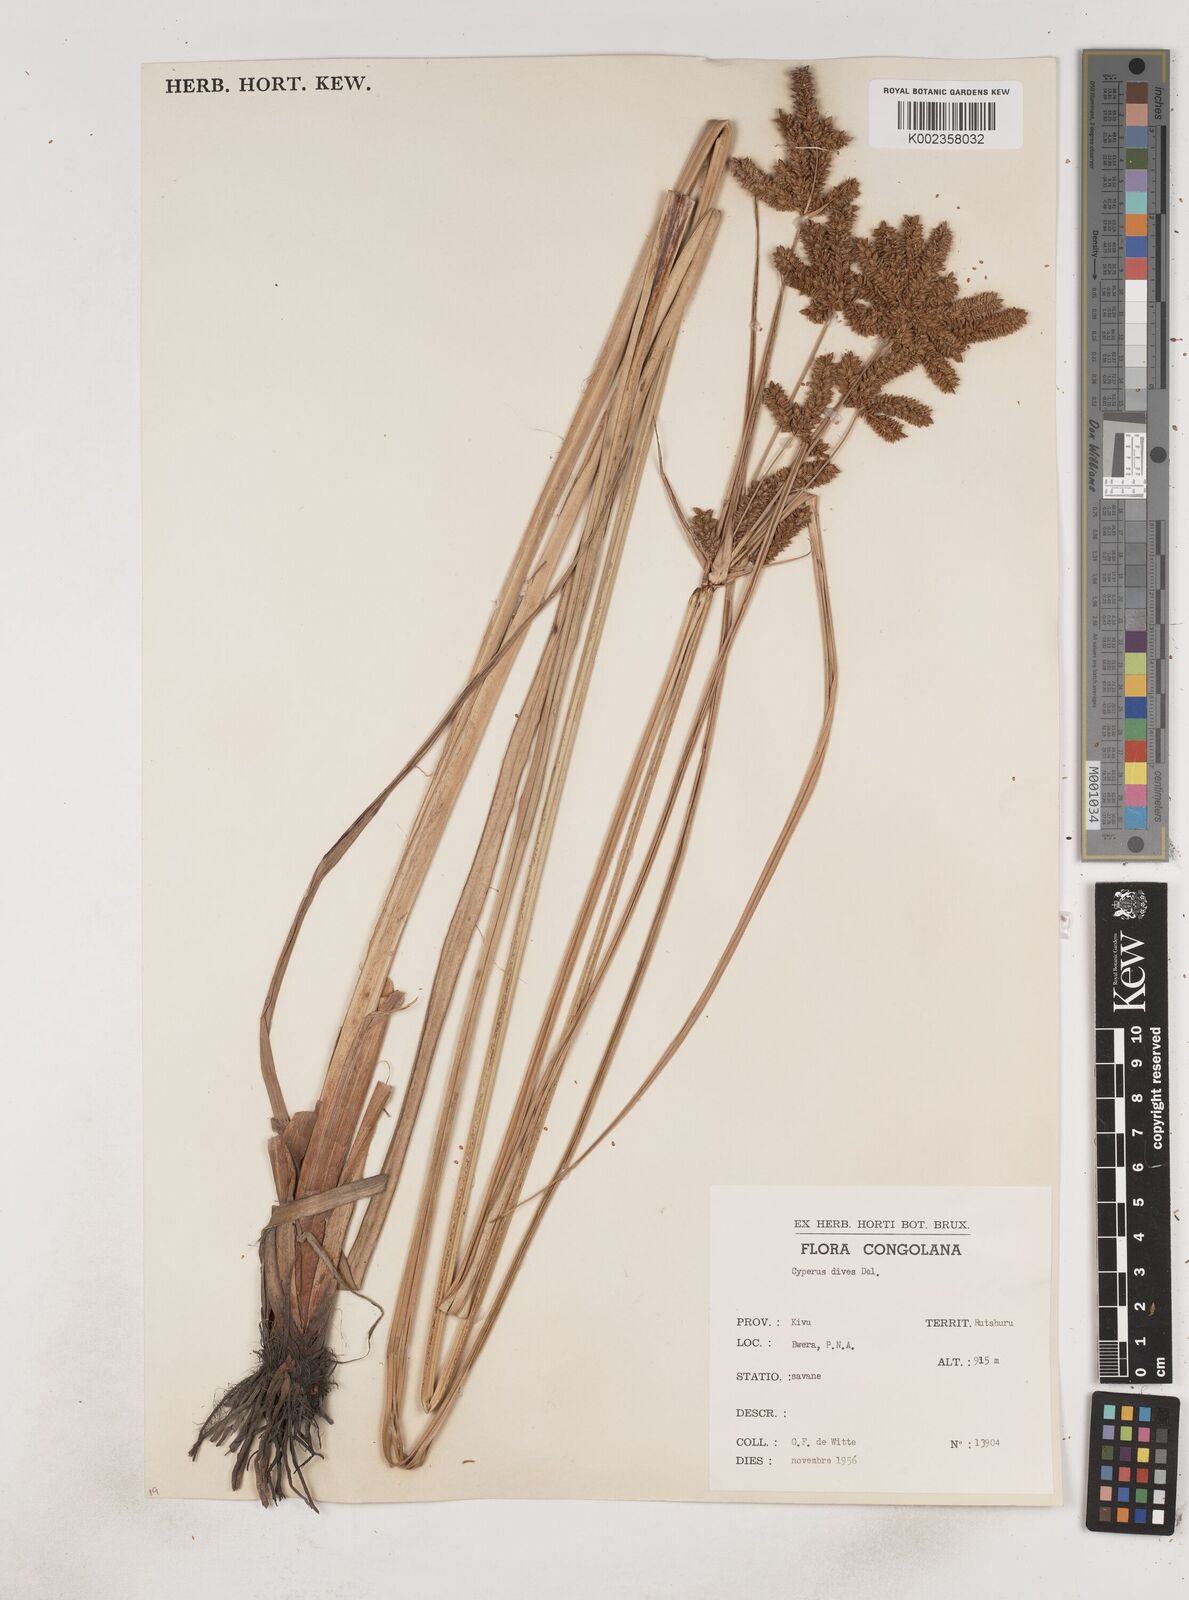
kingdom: Plantae
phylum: Tracheophyta
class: Liliopsida
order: Poales
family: Cyperaceae
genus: Cyperus
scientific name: Cyperus dives
